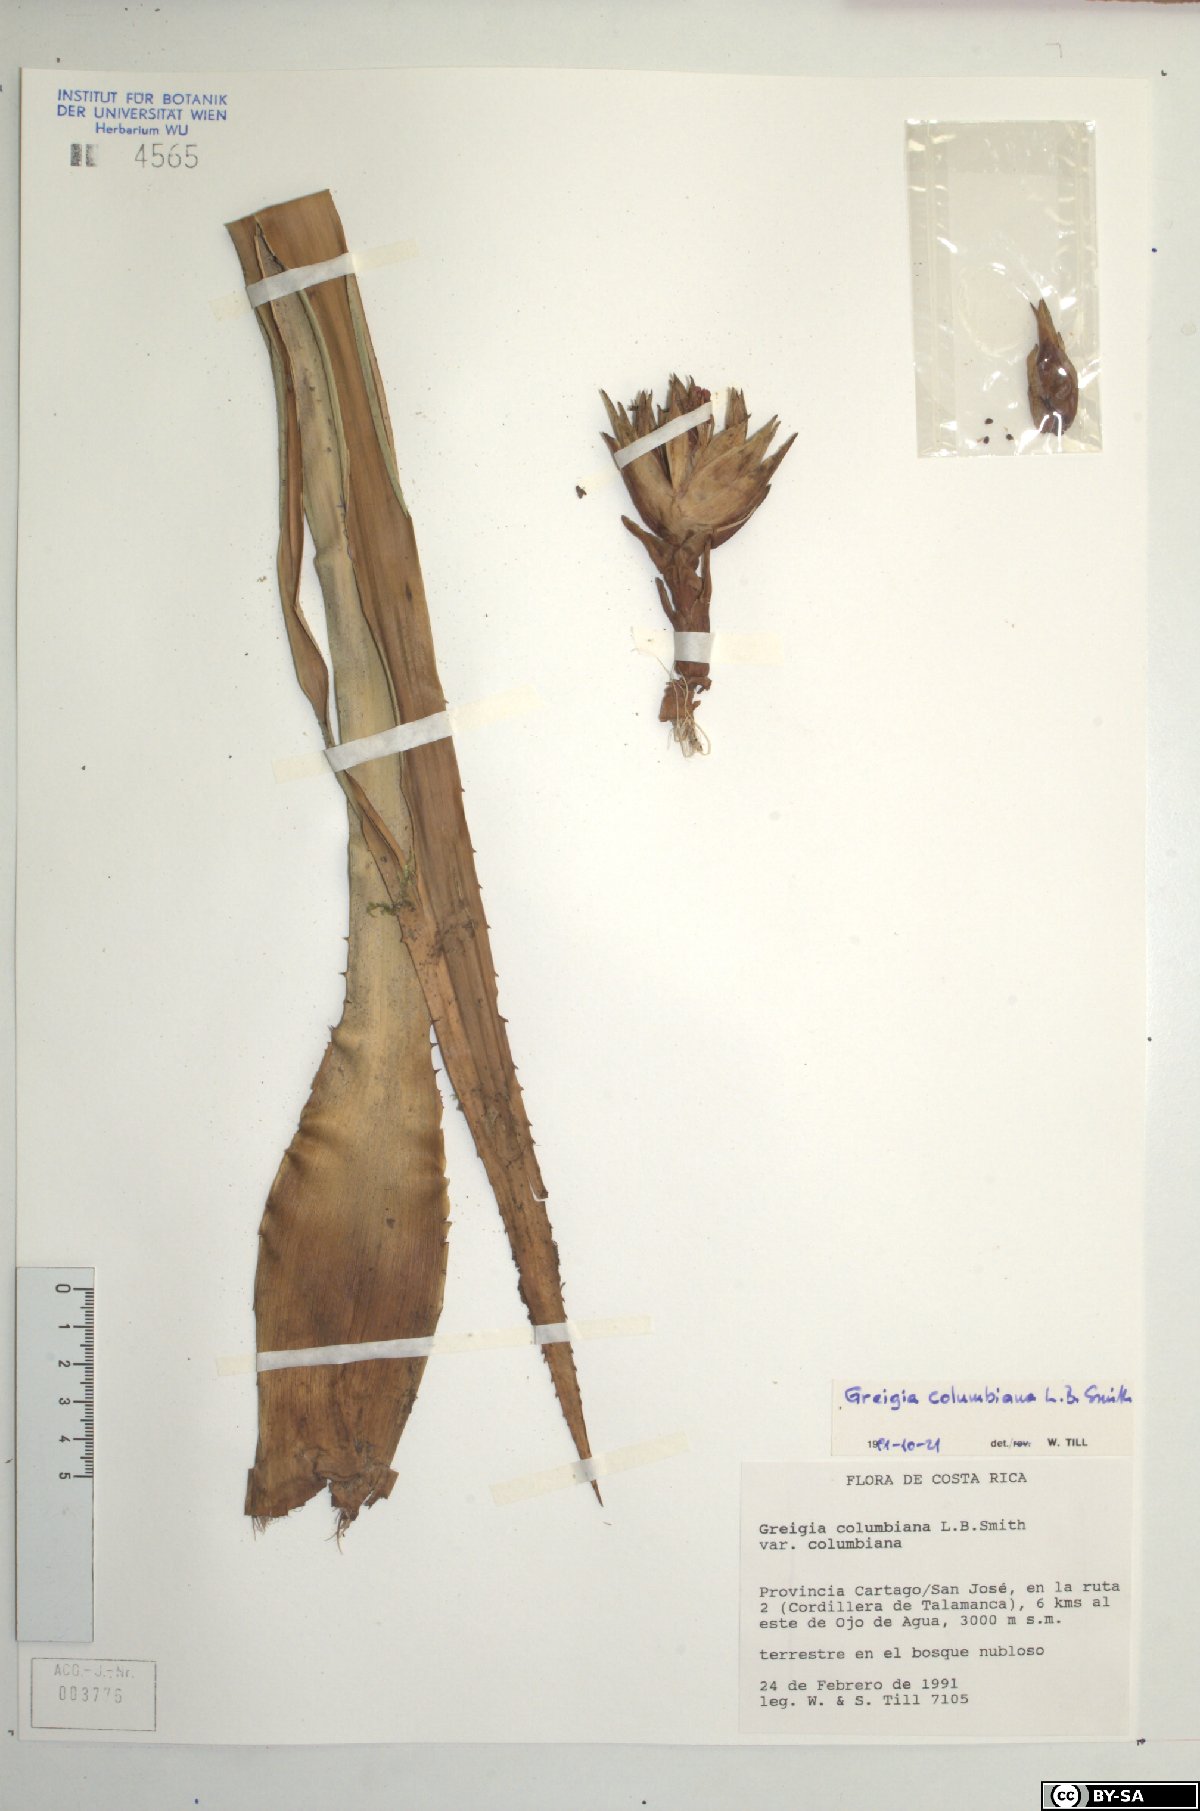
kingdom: Plantae
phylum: Tracheophyta
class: Liliopsida
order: Poales
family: Bromeliaceae
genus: Greigia
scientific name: Greigia columbiana
